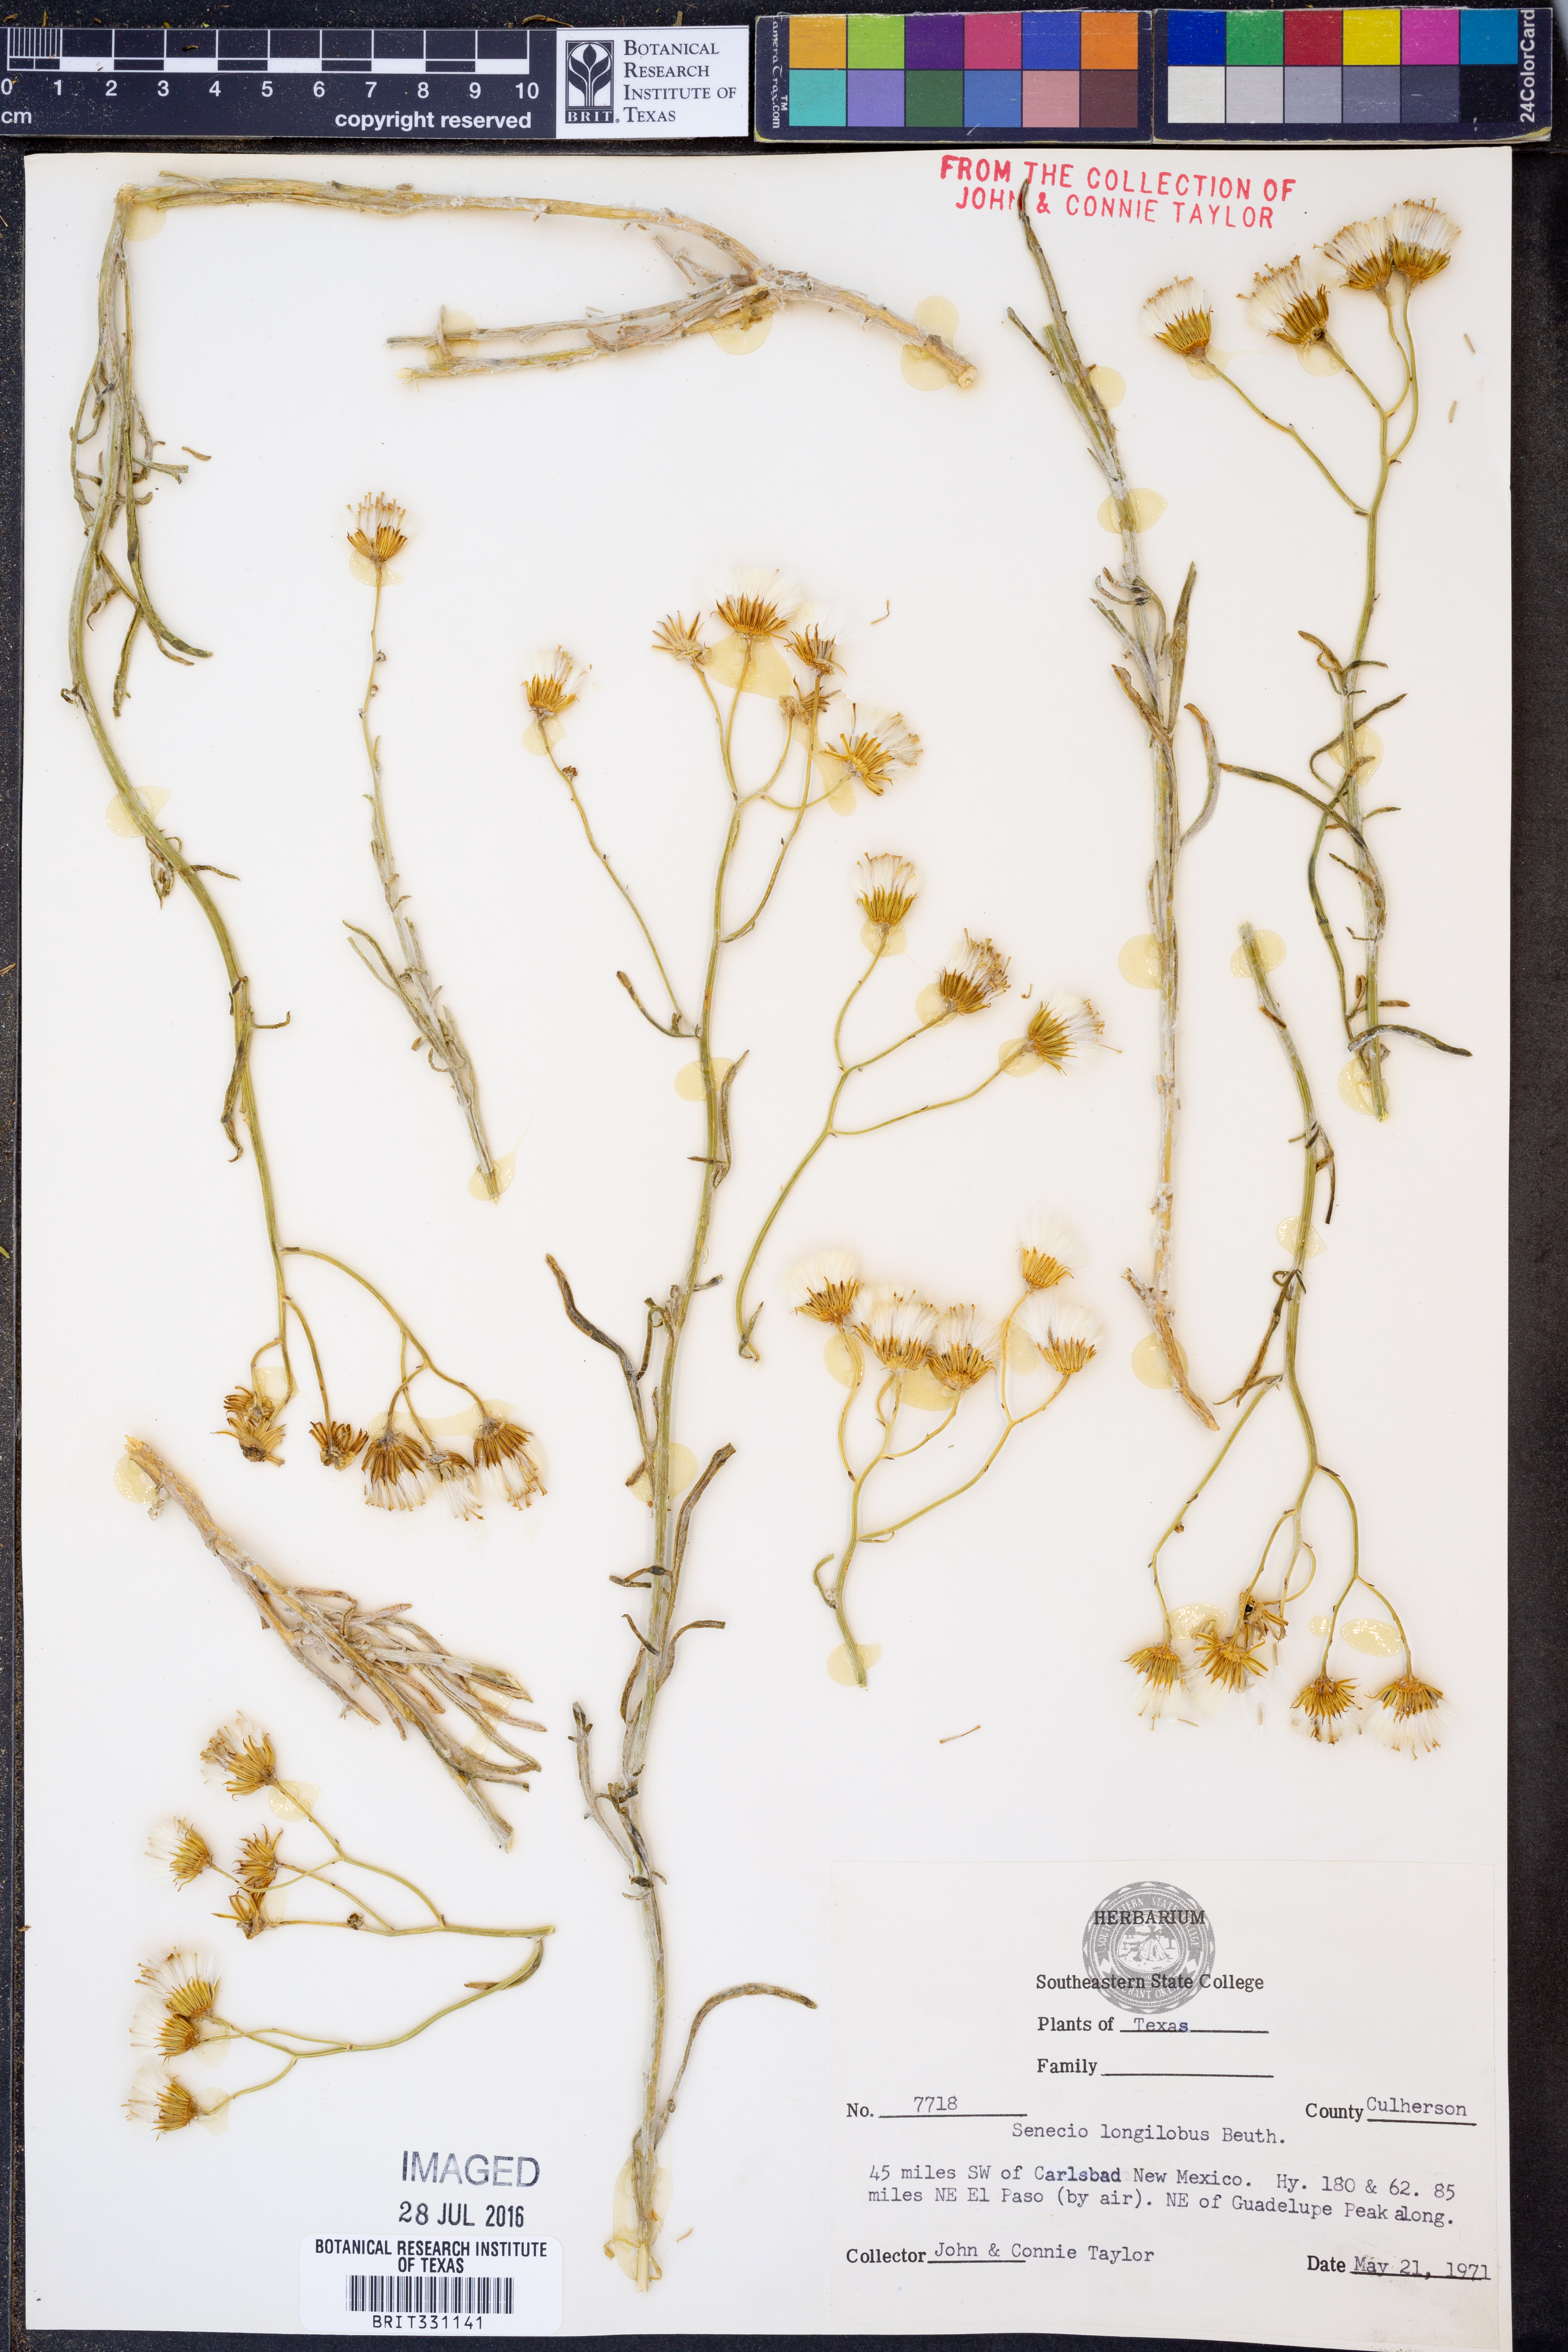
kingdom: Plantae
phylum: Tracheophyta
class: Magnoliopsida
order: Asterales
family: Asteraceae
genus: Senecio
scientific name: Senecio flaccidus
